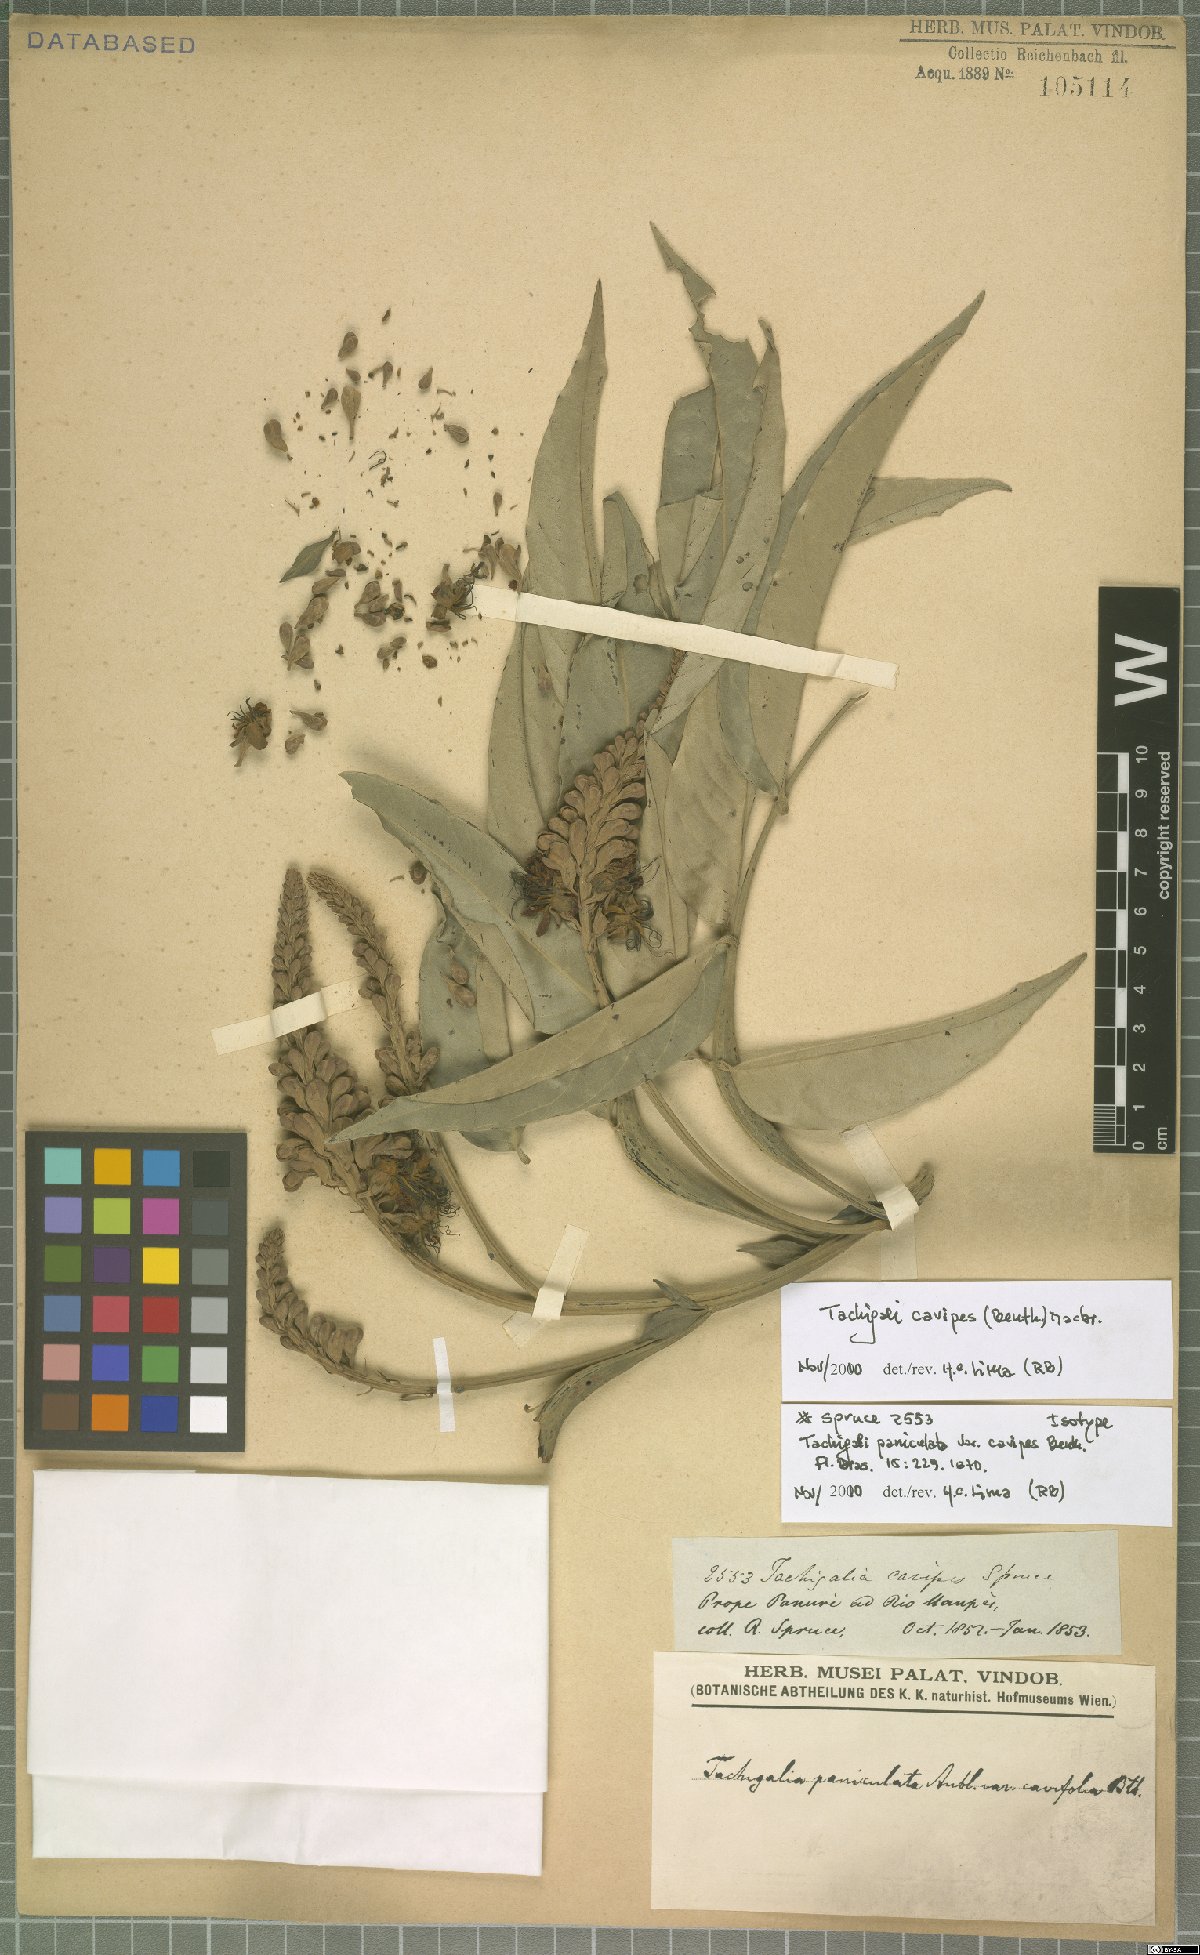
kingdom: Plantae
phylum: Tracheophyta
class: Magnoliopsida
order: Fabales
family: Fabaceae
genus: Tachigali
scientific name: Tachigali cavipes
